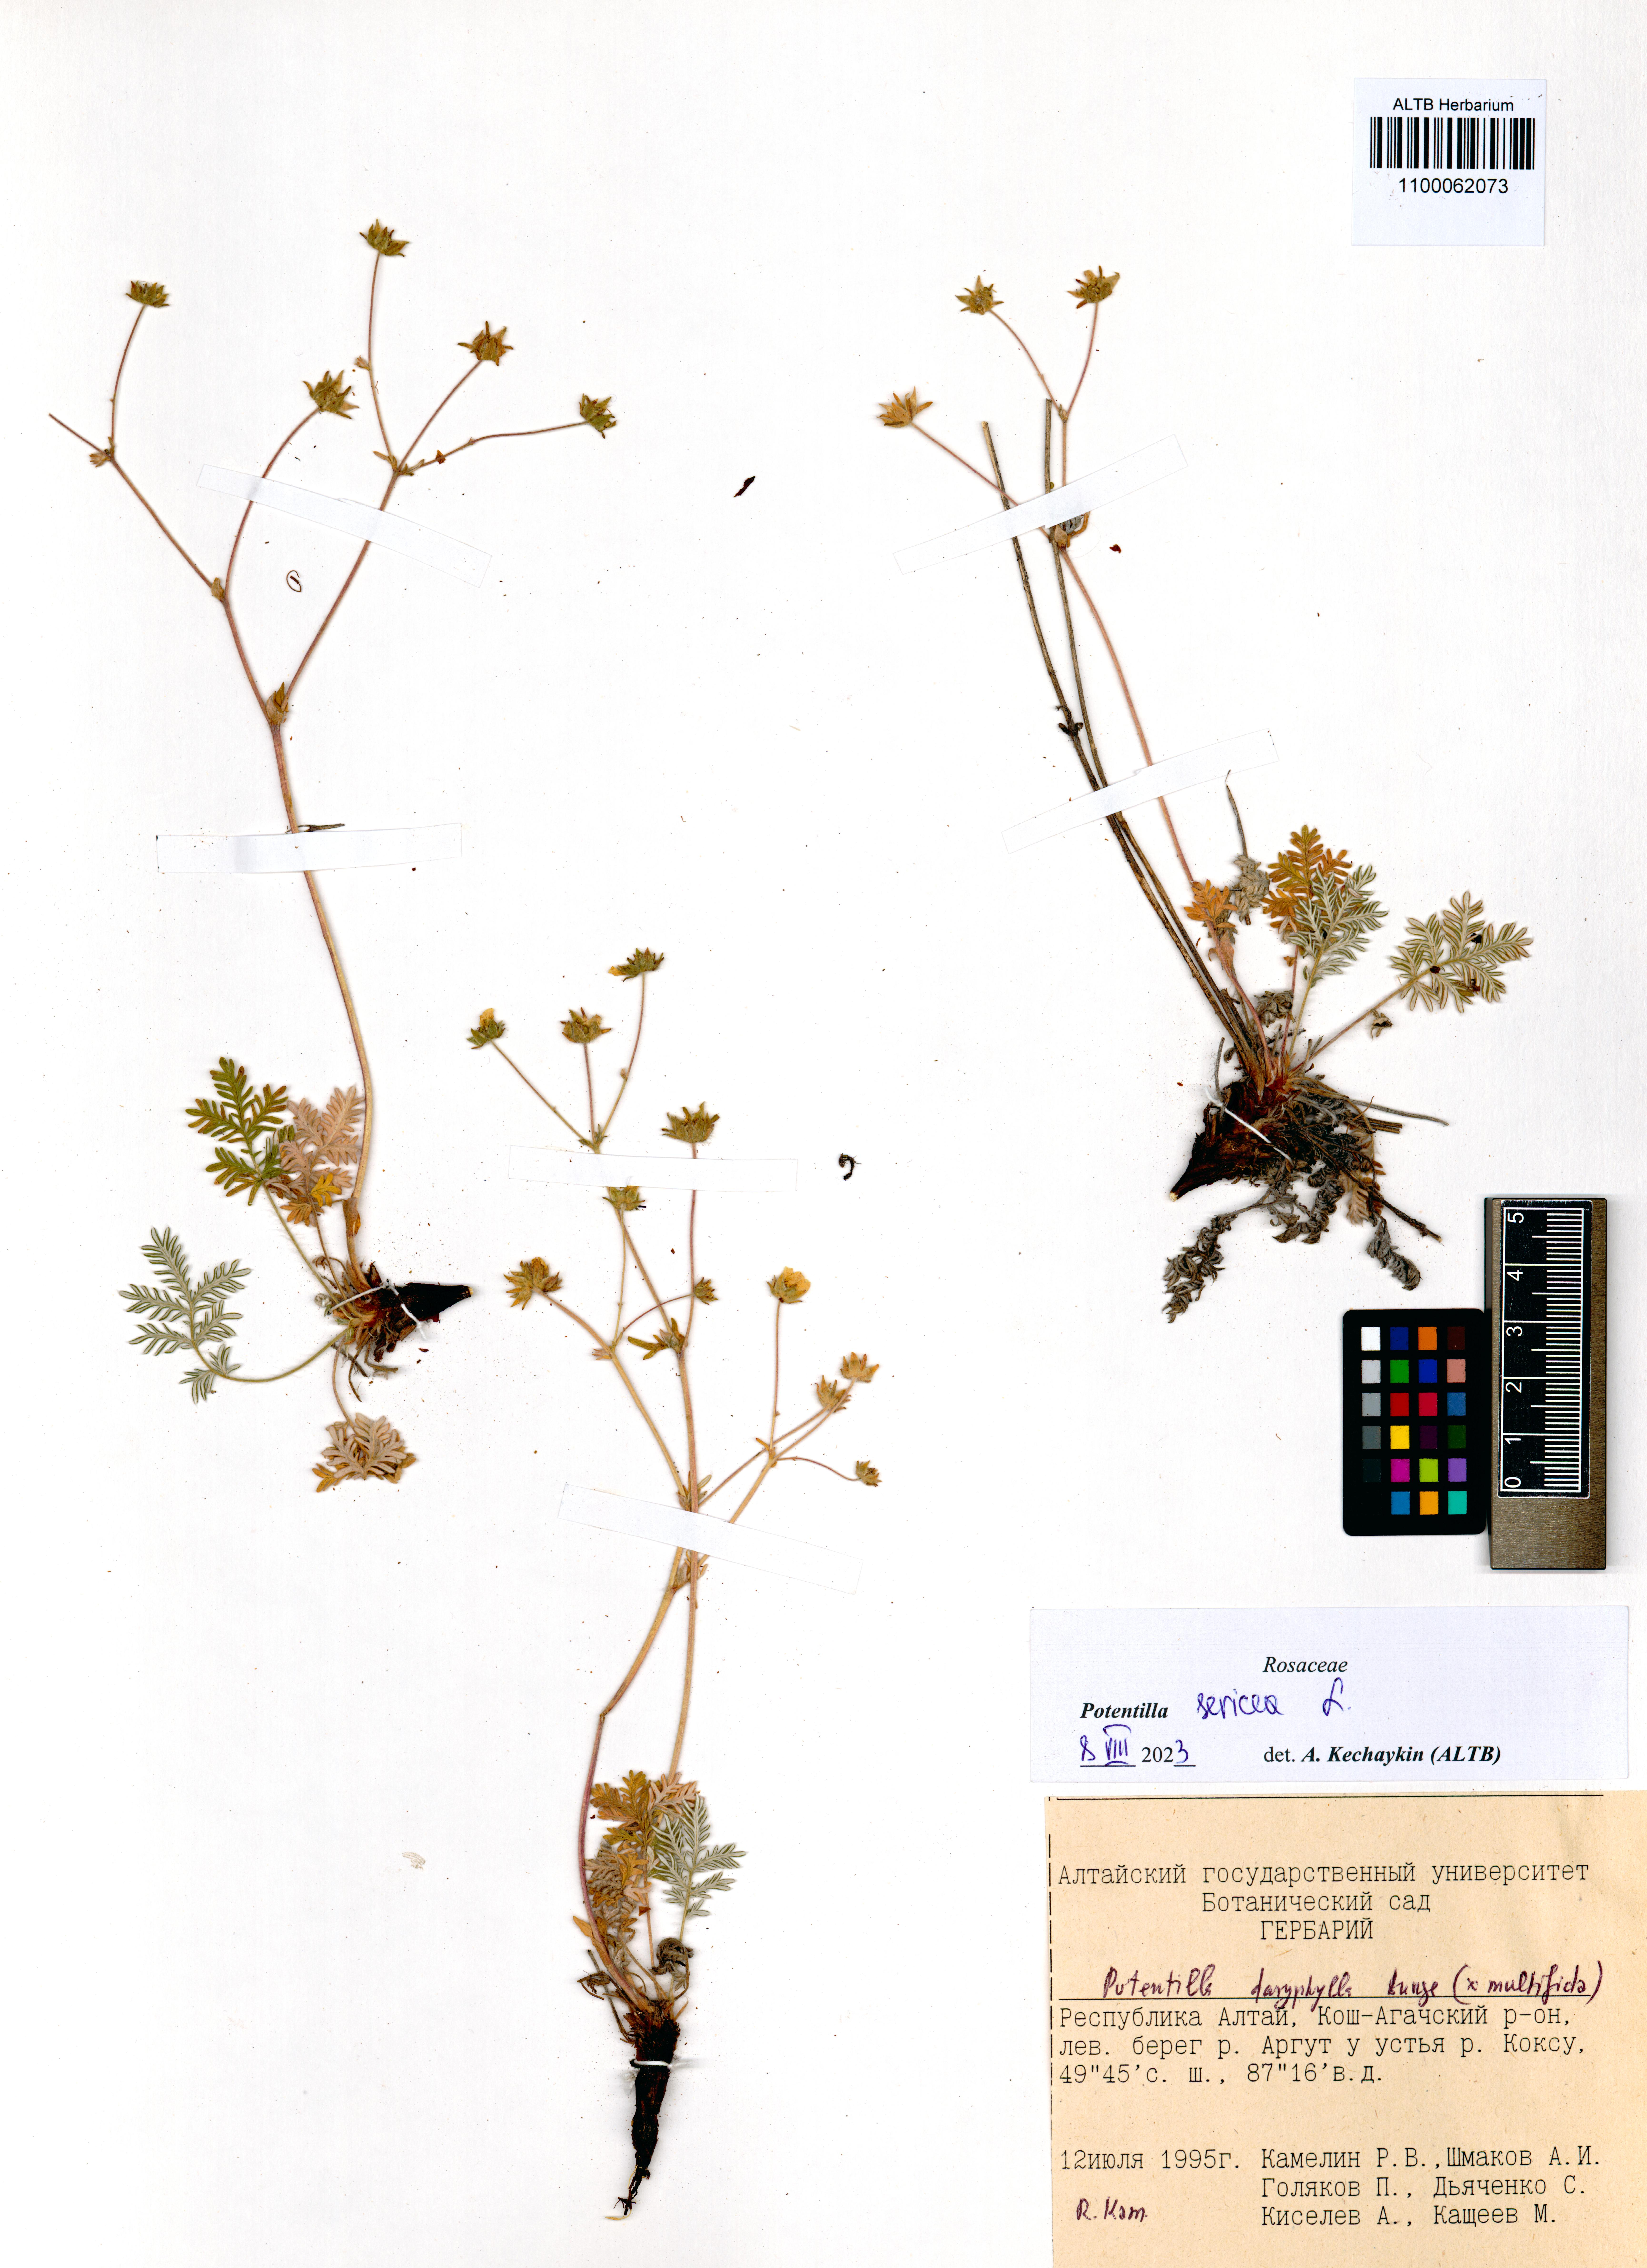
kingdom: Plantae
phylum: Tracheophyta
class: Magnoliopsida
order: Rosales
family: Rosaceae
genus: Potentilla
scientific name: Potentilla sericea
